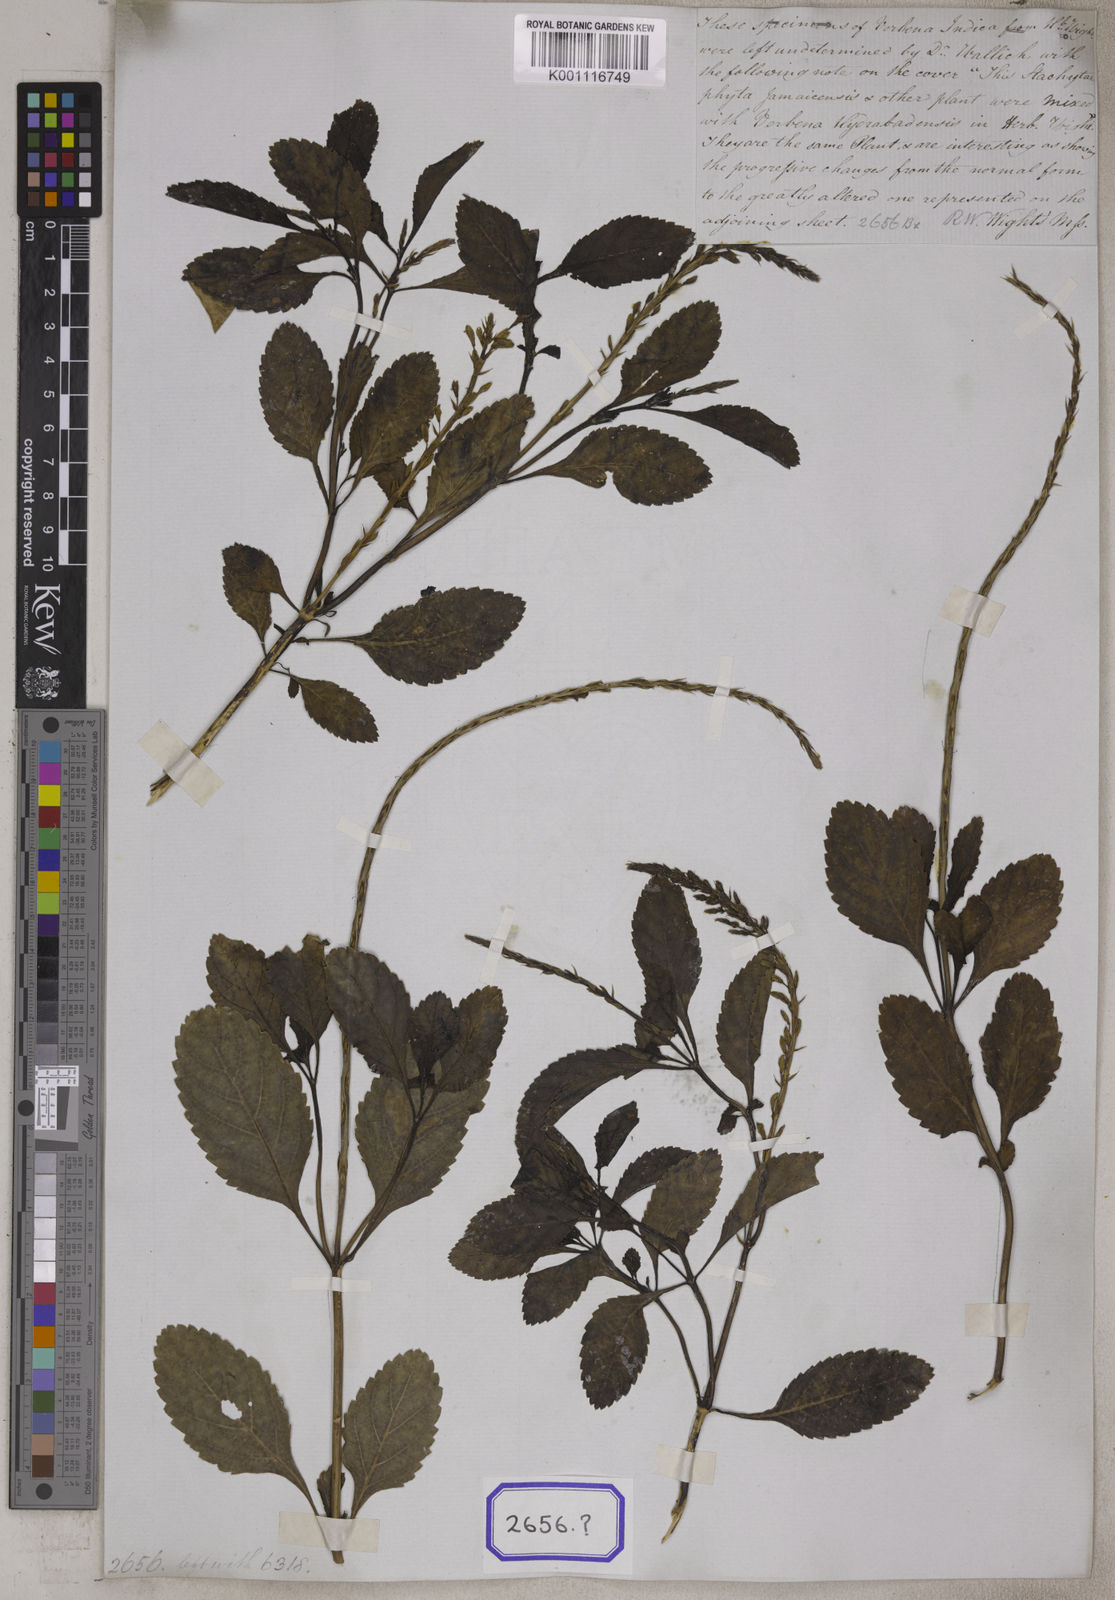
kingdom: Plantae
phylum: Tracheophyta
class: Magnoliopsida
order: Lamiales
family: Verbenaceae
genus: Stachytarpheta
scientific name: Stachytarpheta indica
